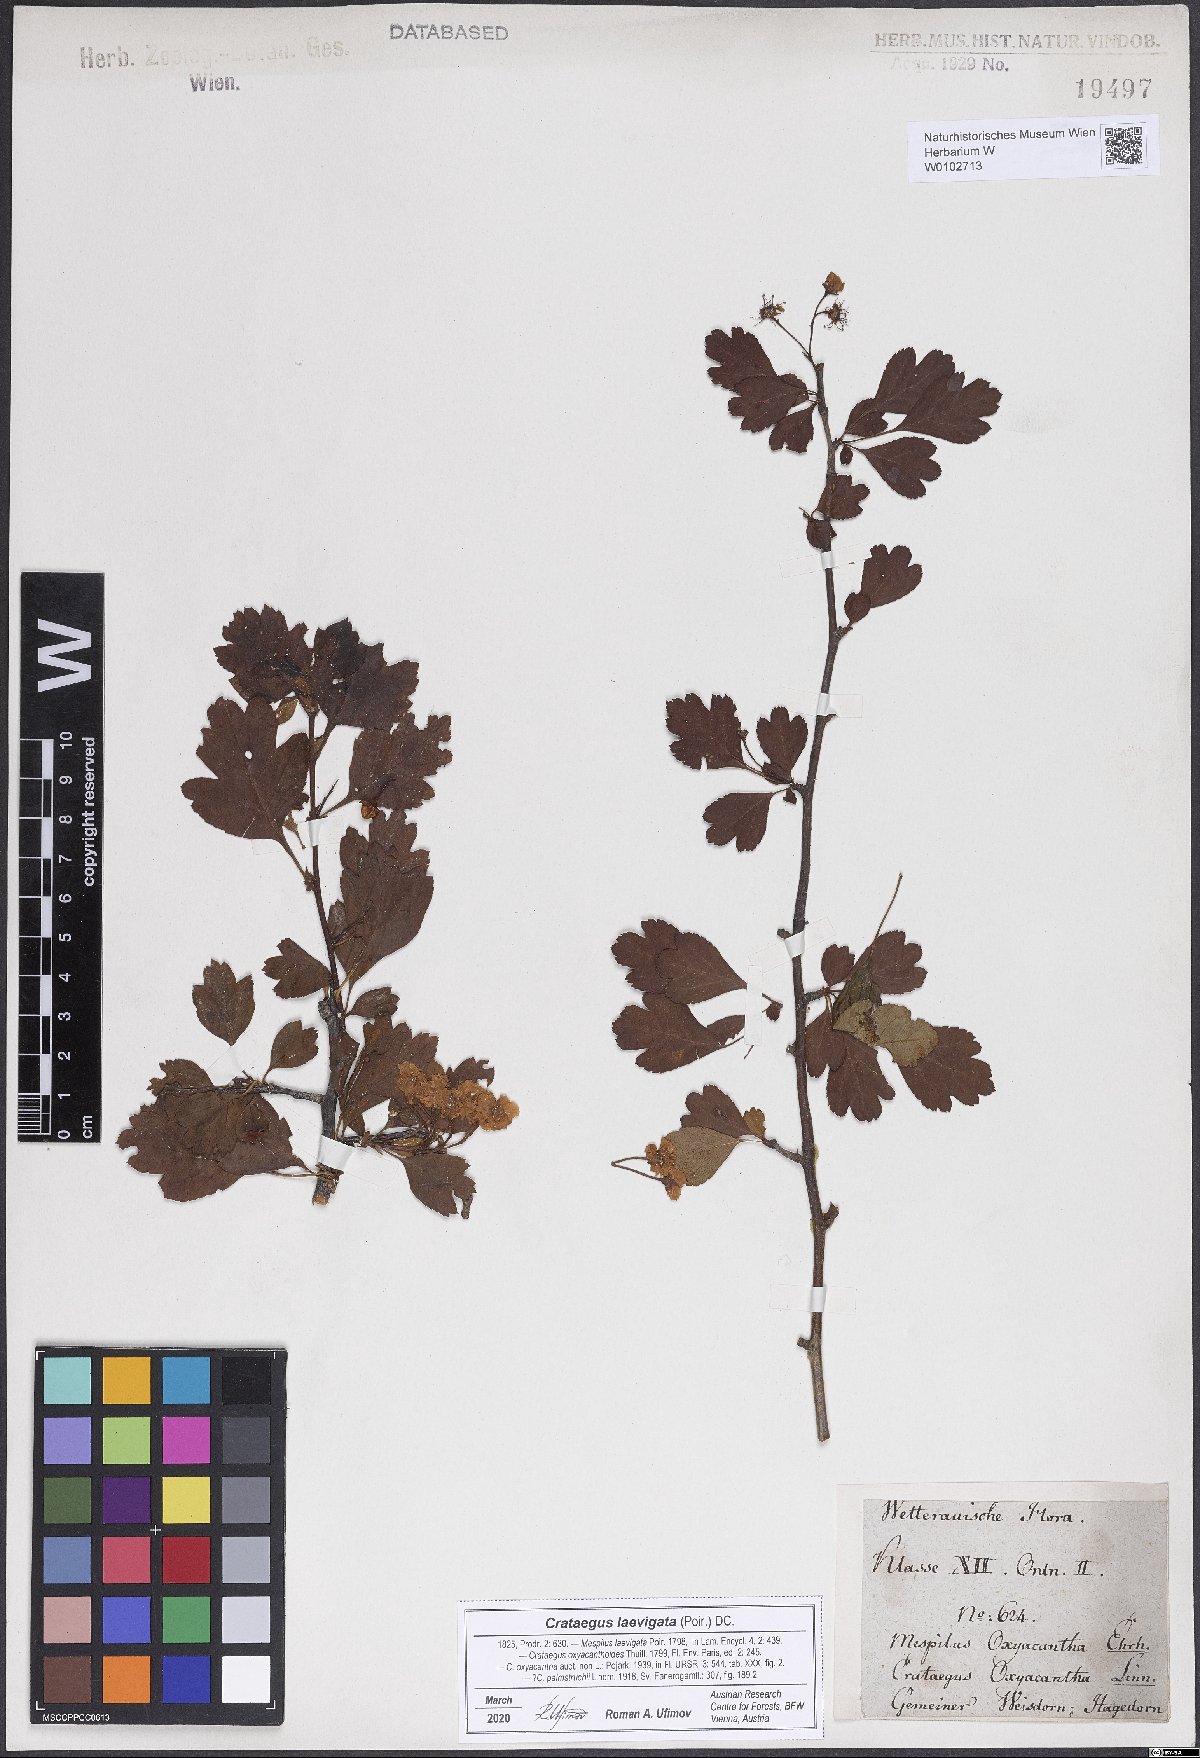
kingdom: Plantae
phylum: Tracheophyta
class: Magnoliopsida
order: Rosales
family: Rosaceae
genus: Crataegus
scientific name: Crataegus laevigata
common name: Midland hawthorn
